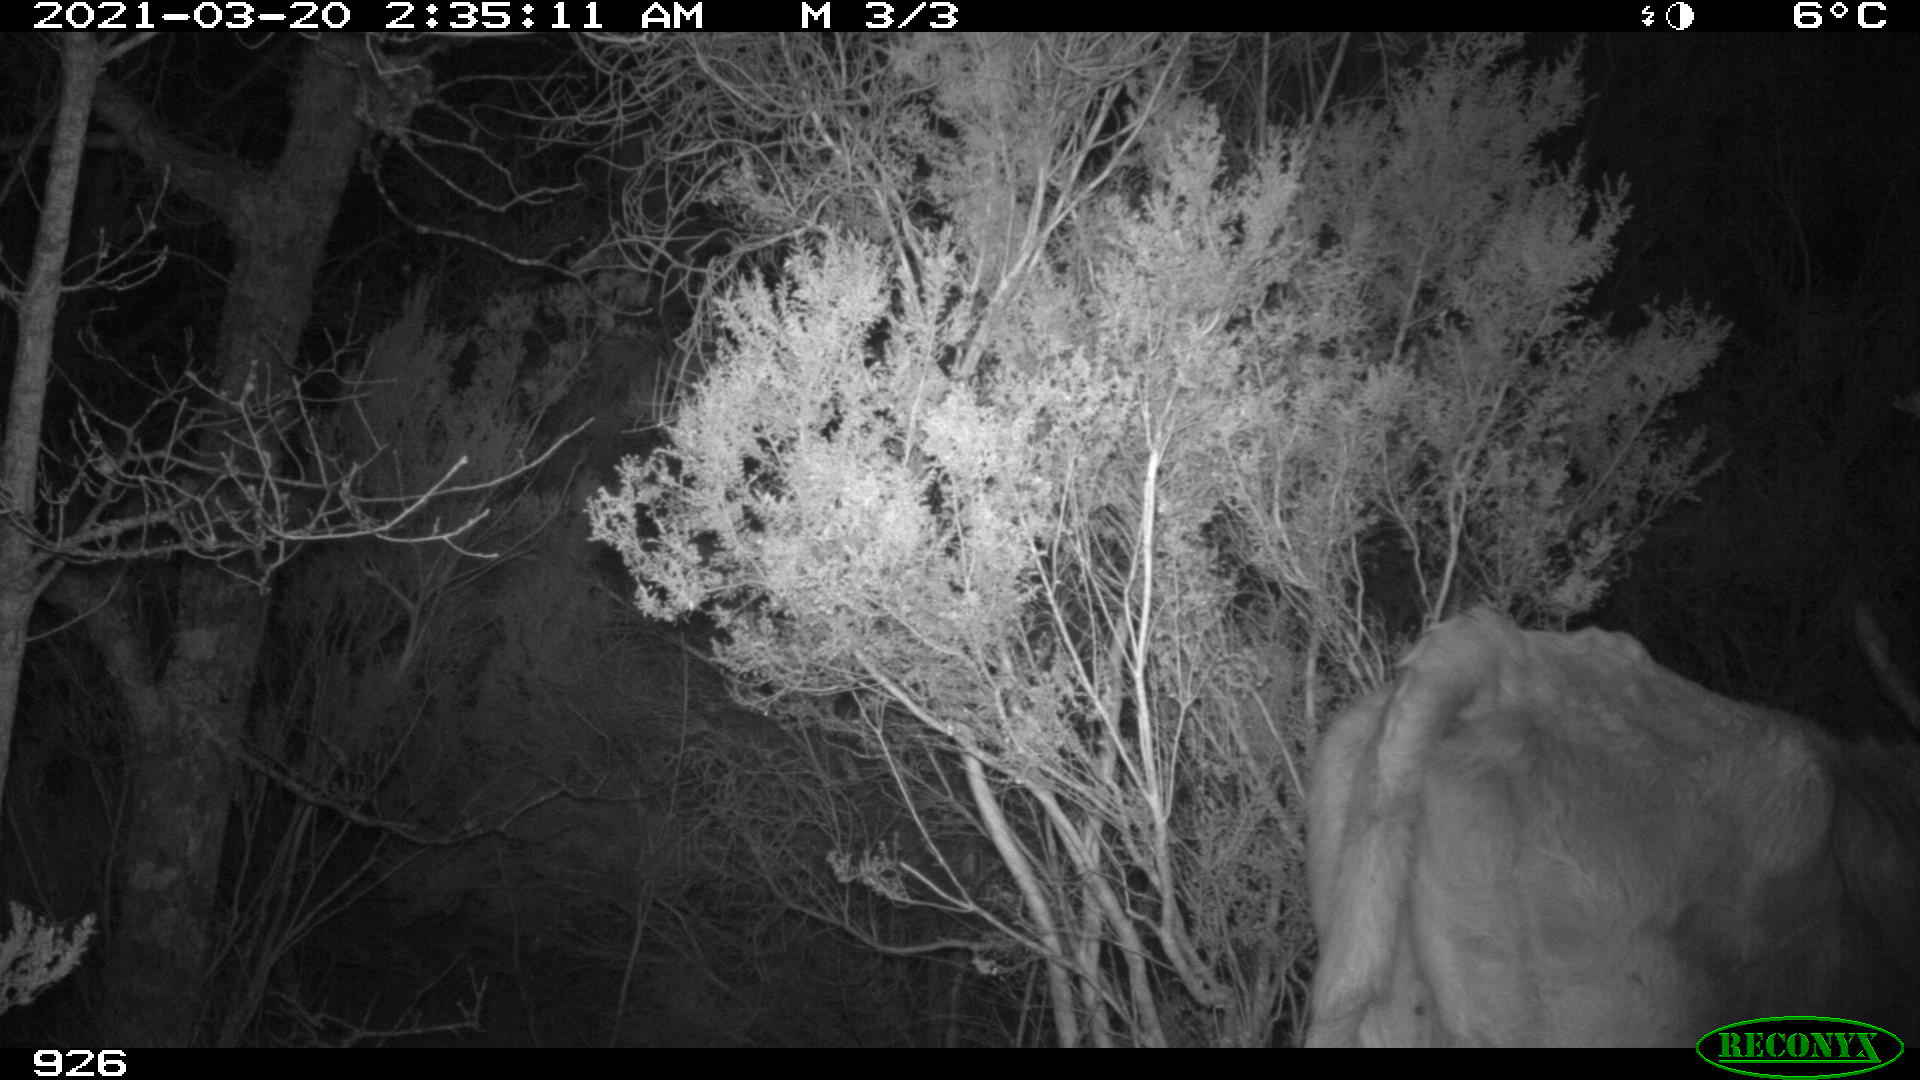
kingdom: Animalia
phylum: Chordata
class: Mammalia
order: Artiodactyla
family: Bovidae
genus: Bos
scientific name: Bos taurus
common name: Domesticated cattle
